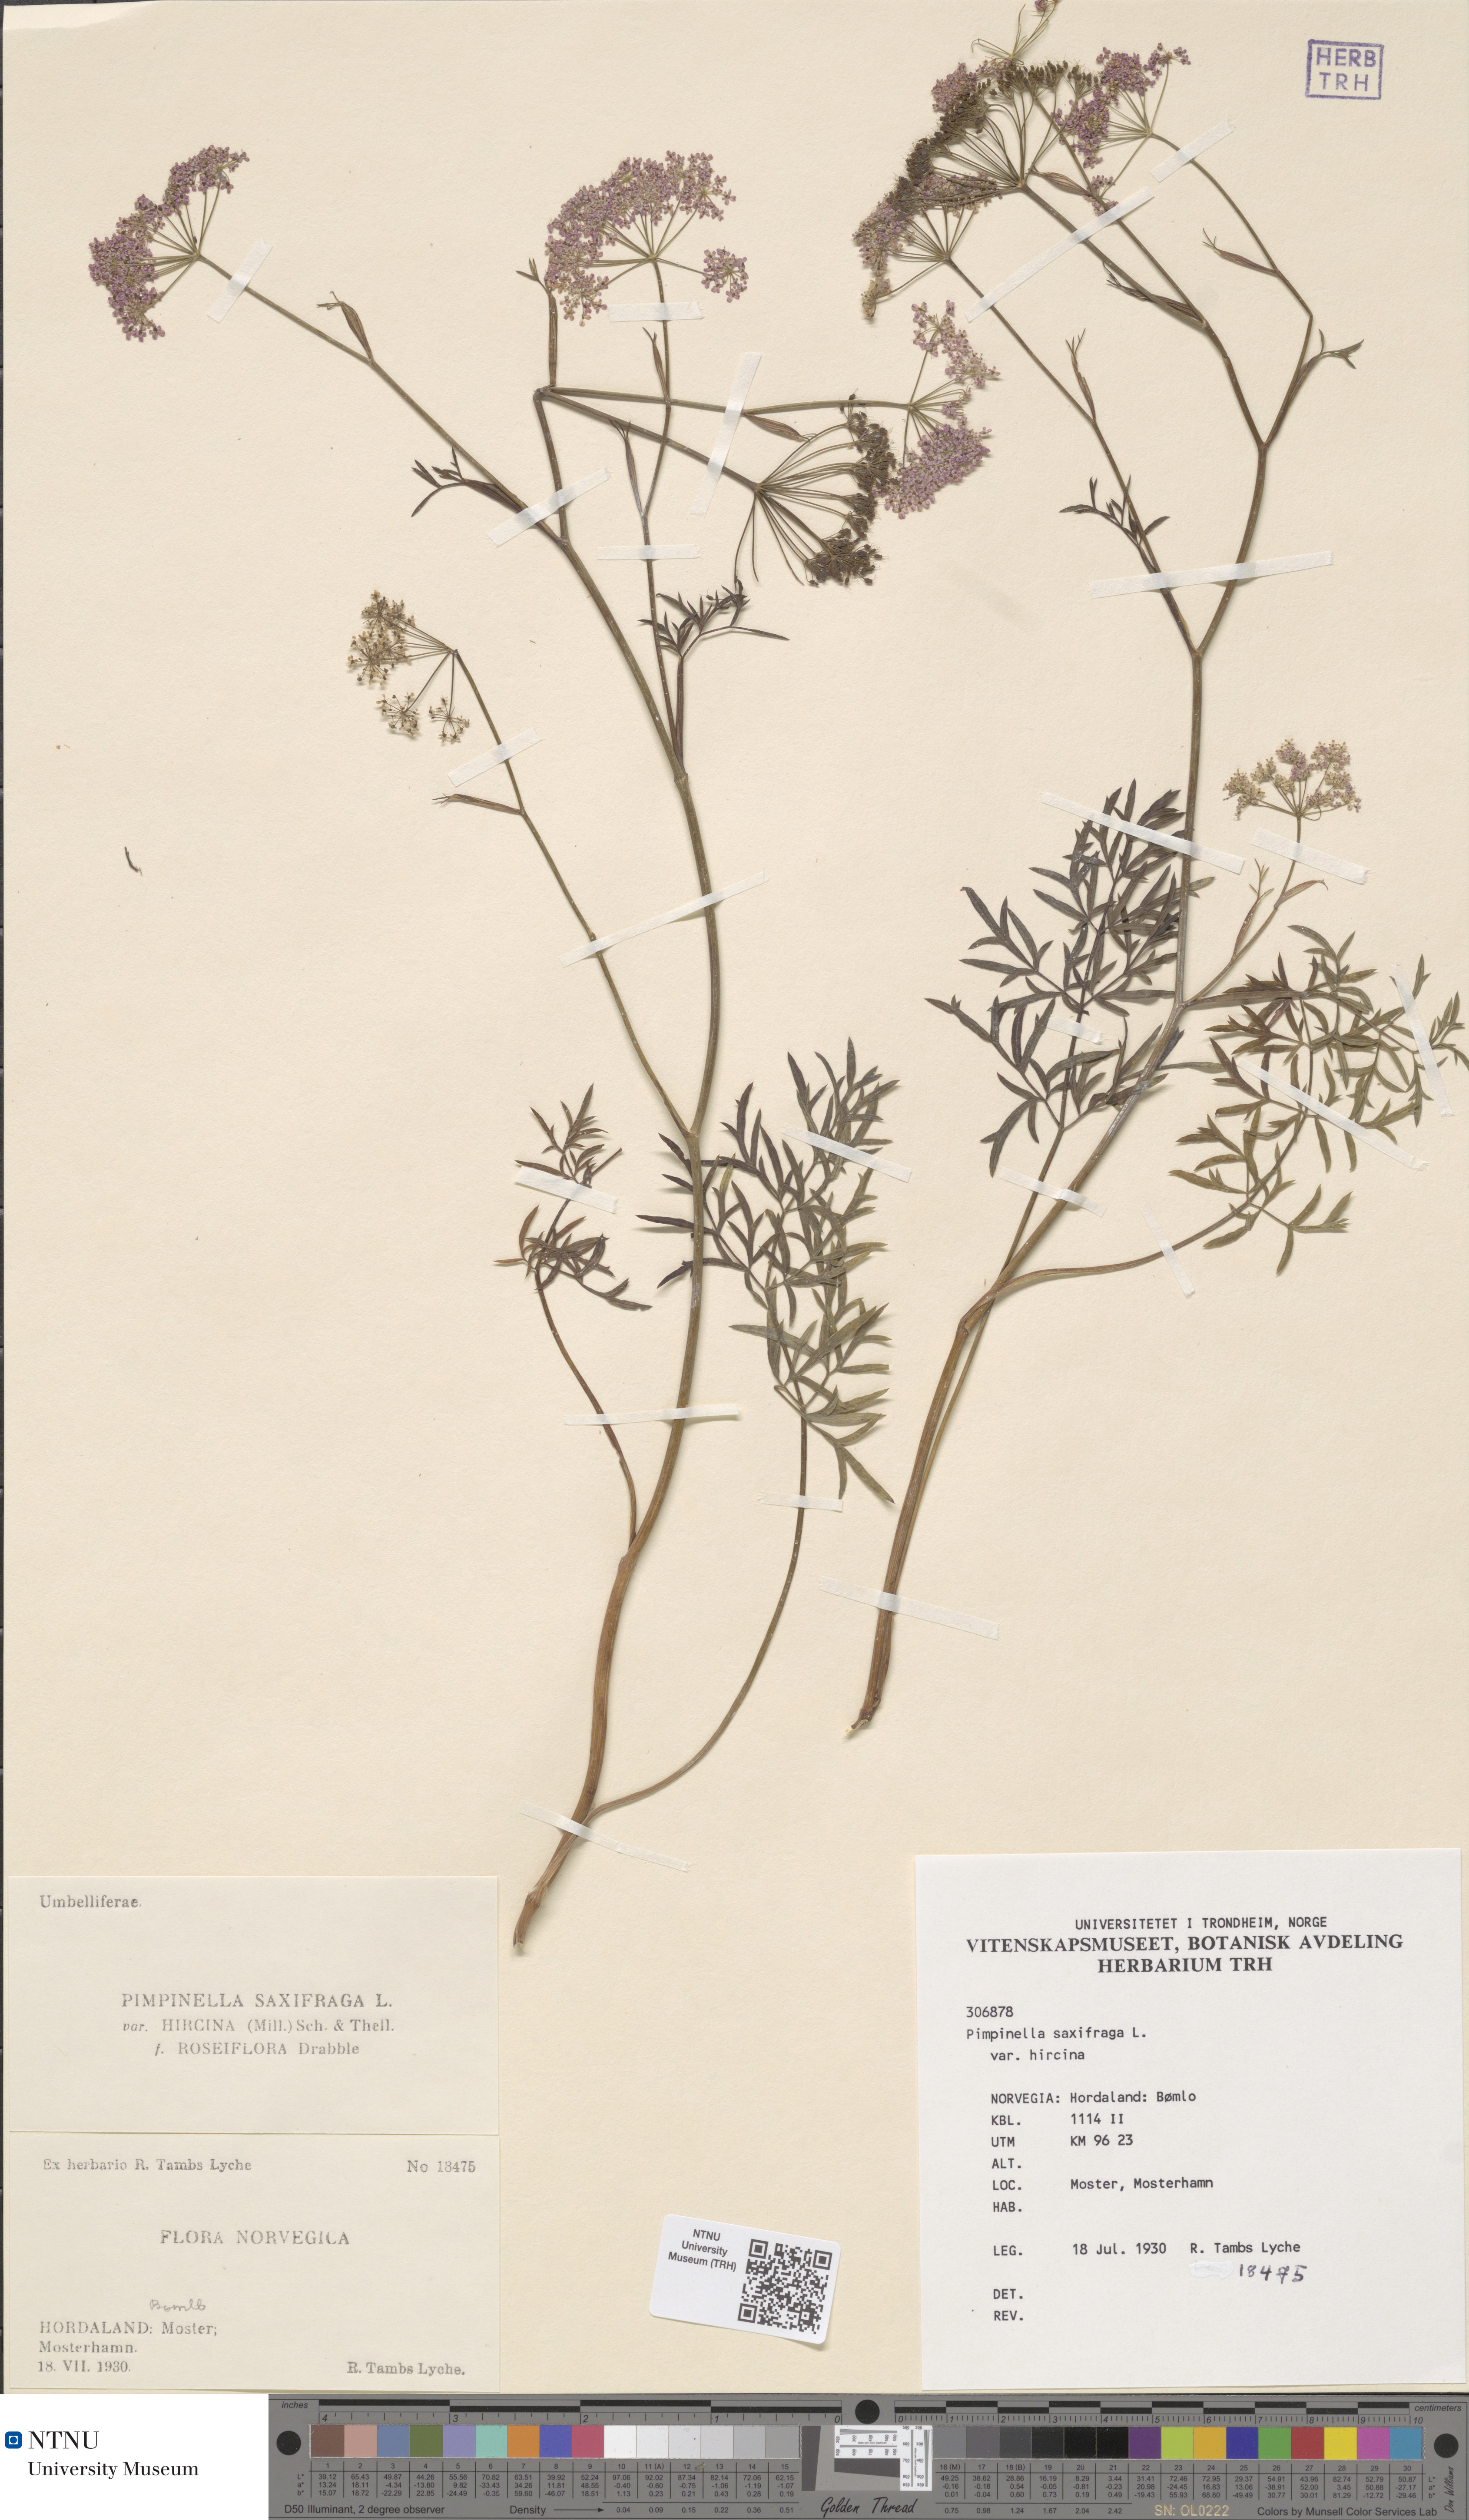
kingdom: Plantae
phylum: Tracheophyta
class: Magnoliopsida
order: Apiales
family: Apiaceae
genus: Pimpinella
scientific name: Pimpinella saxifraga
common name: Burnet-saxifrage
